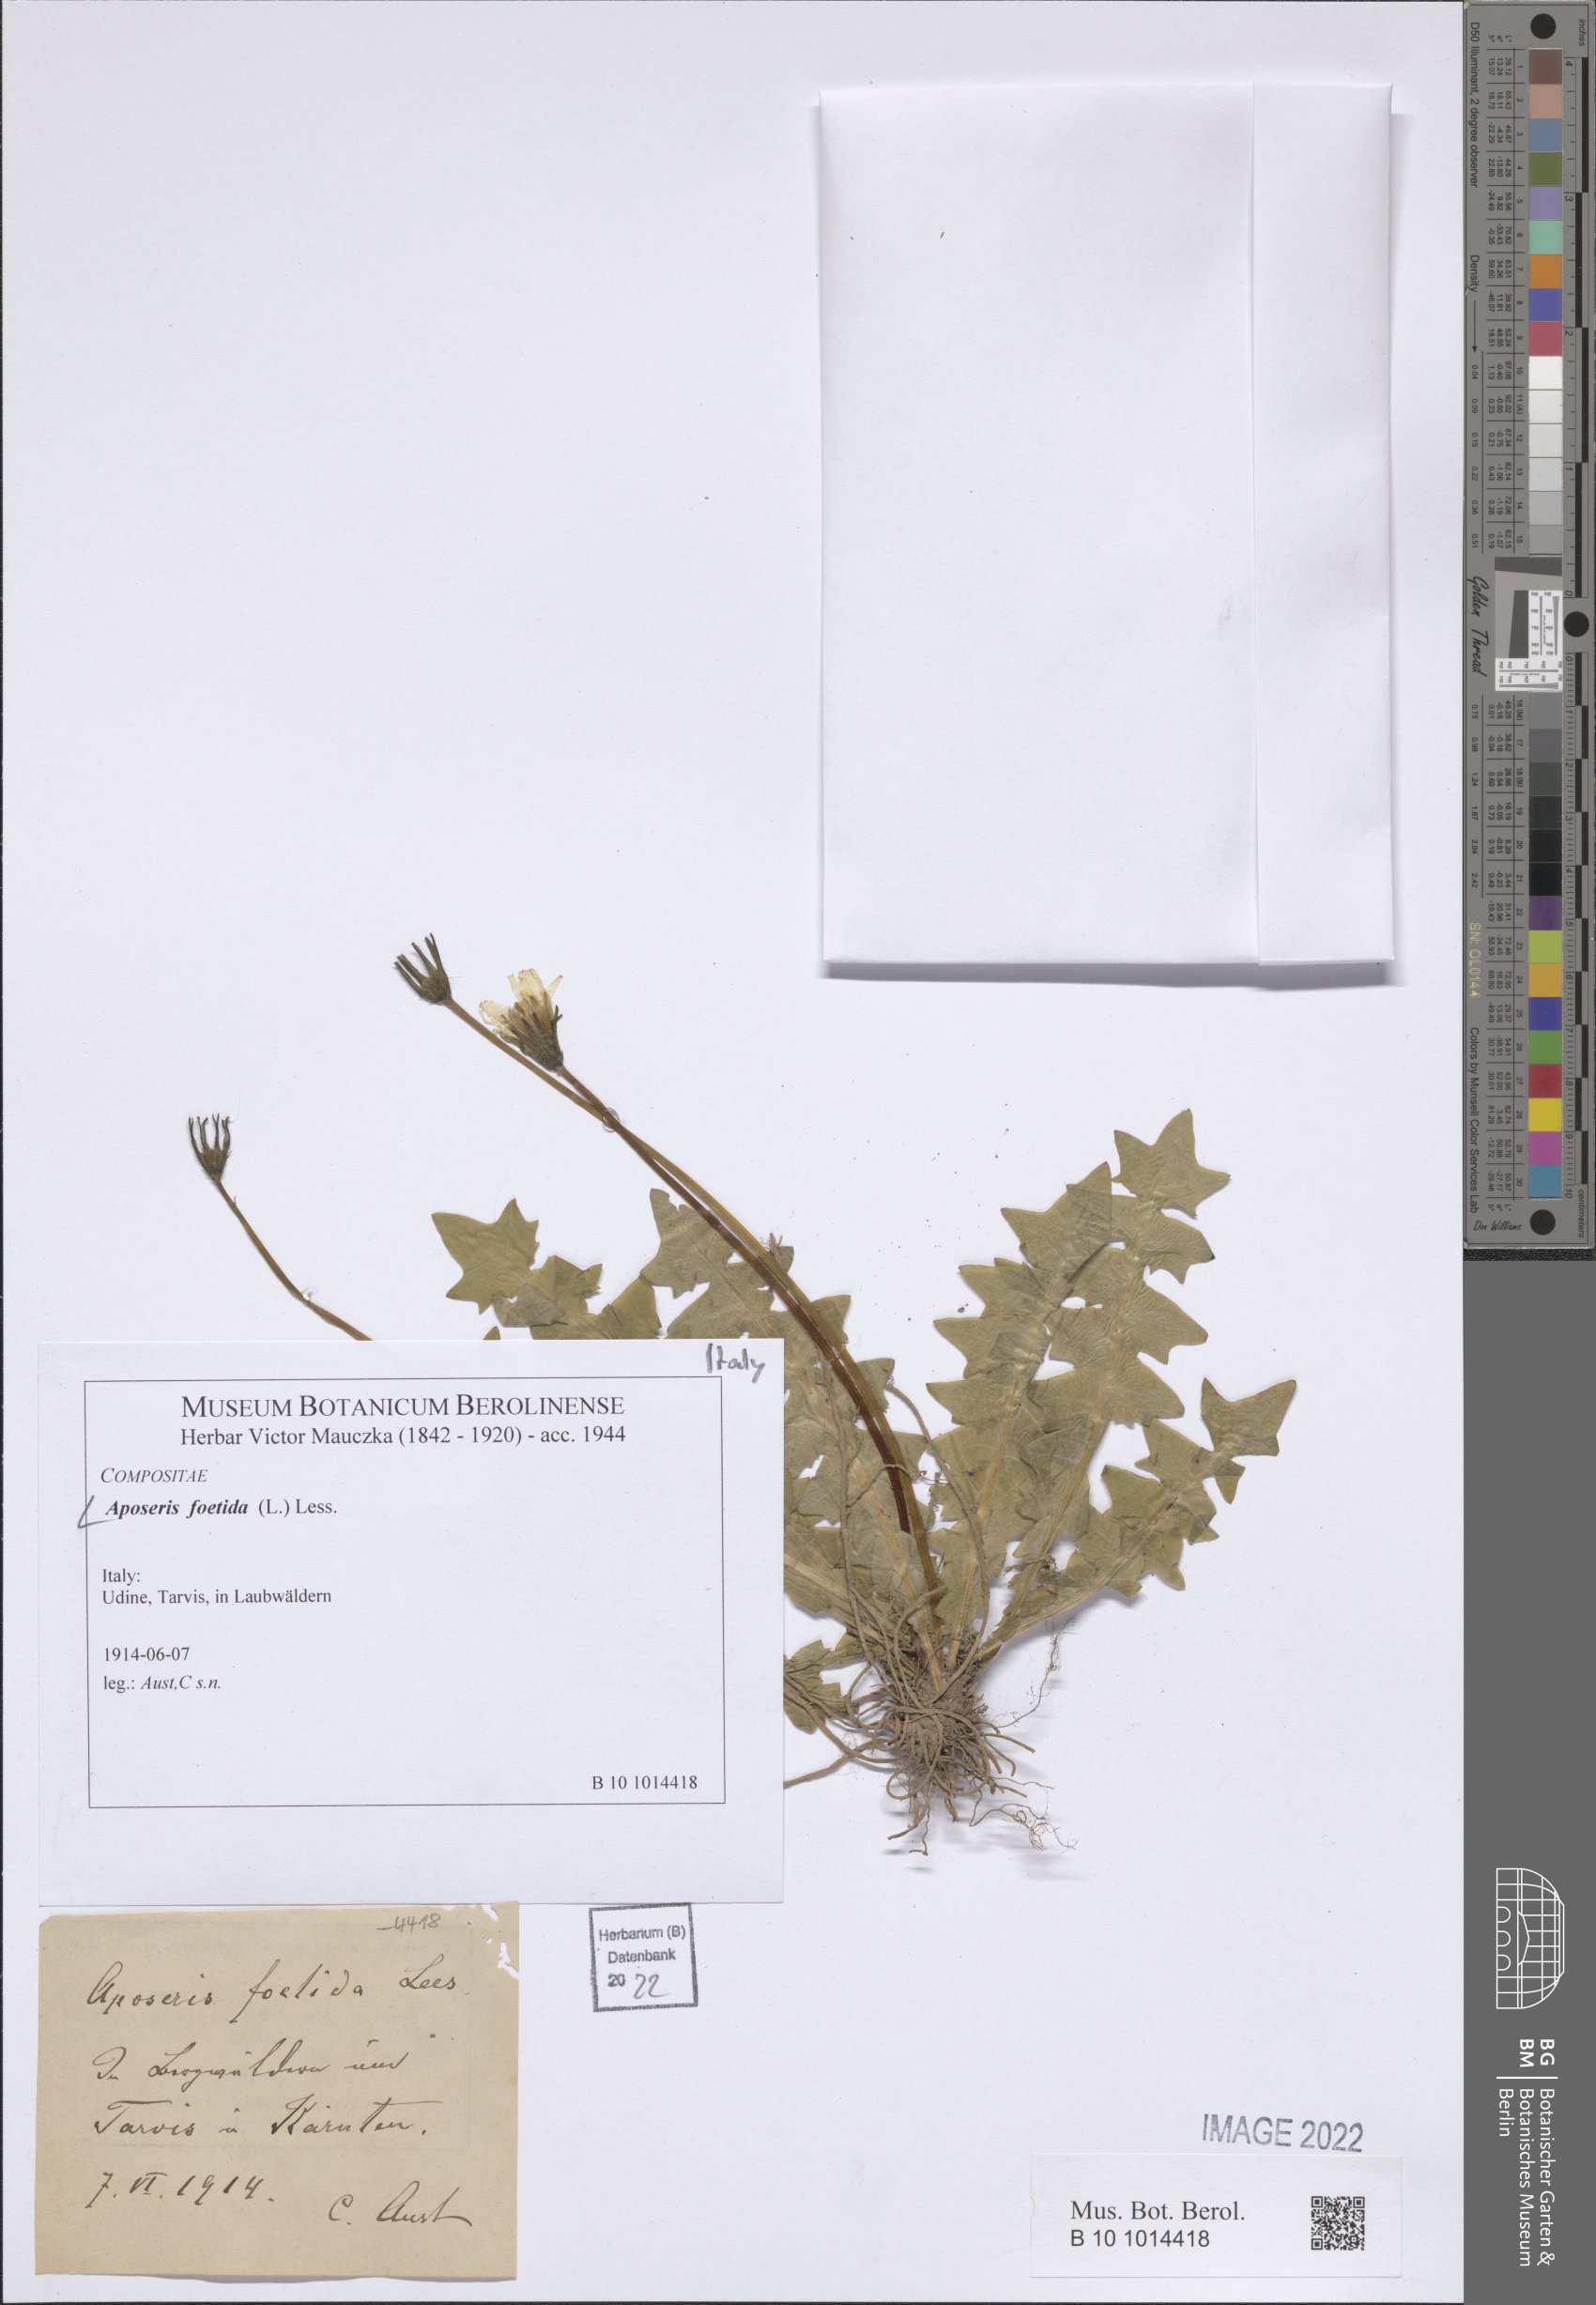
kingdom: Plantae
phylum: Tracheophyta
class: Magnoliopsida
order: Asterales
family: Asteraceae
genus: Aposeris
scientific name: Aposeris foetida
